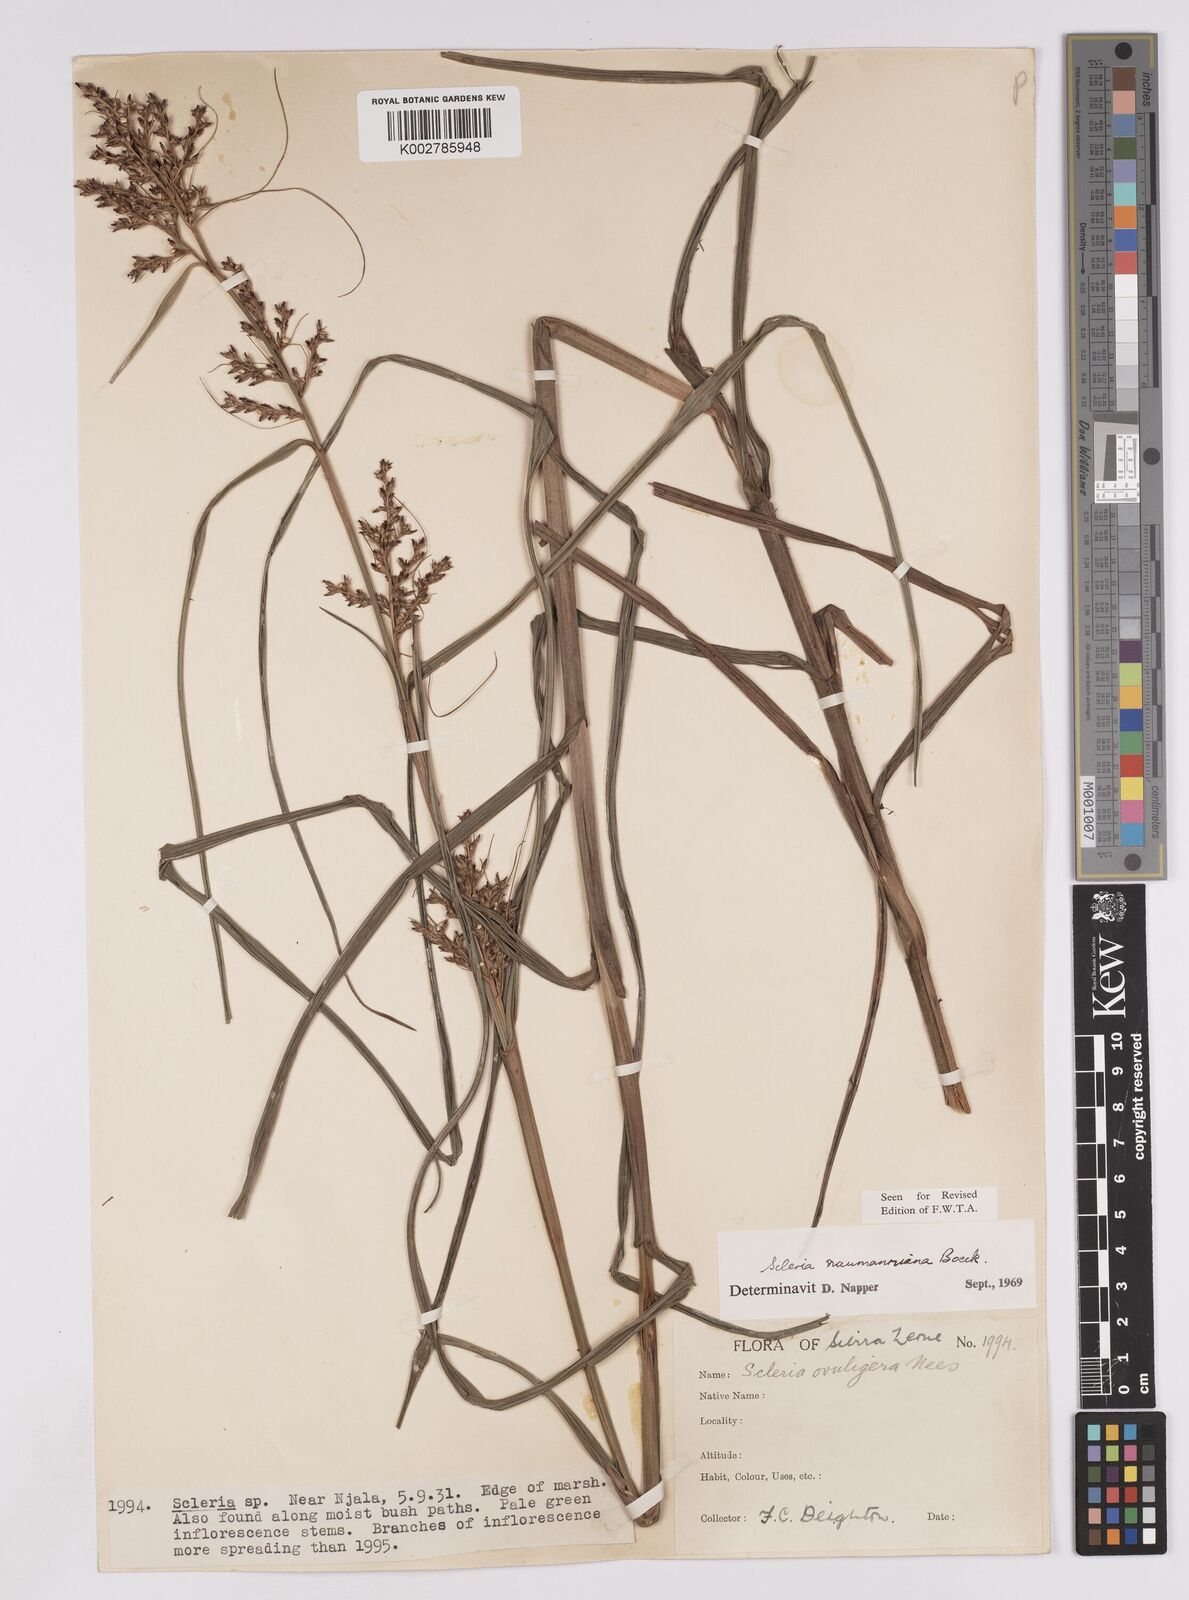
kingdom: Plantae
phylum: Tracheophyta
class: Liliopsida
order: Poales
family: Cyperaceae
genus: Scleria
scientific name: Scleria naumanniana
